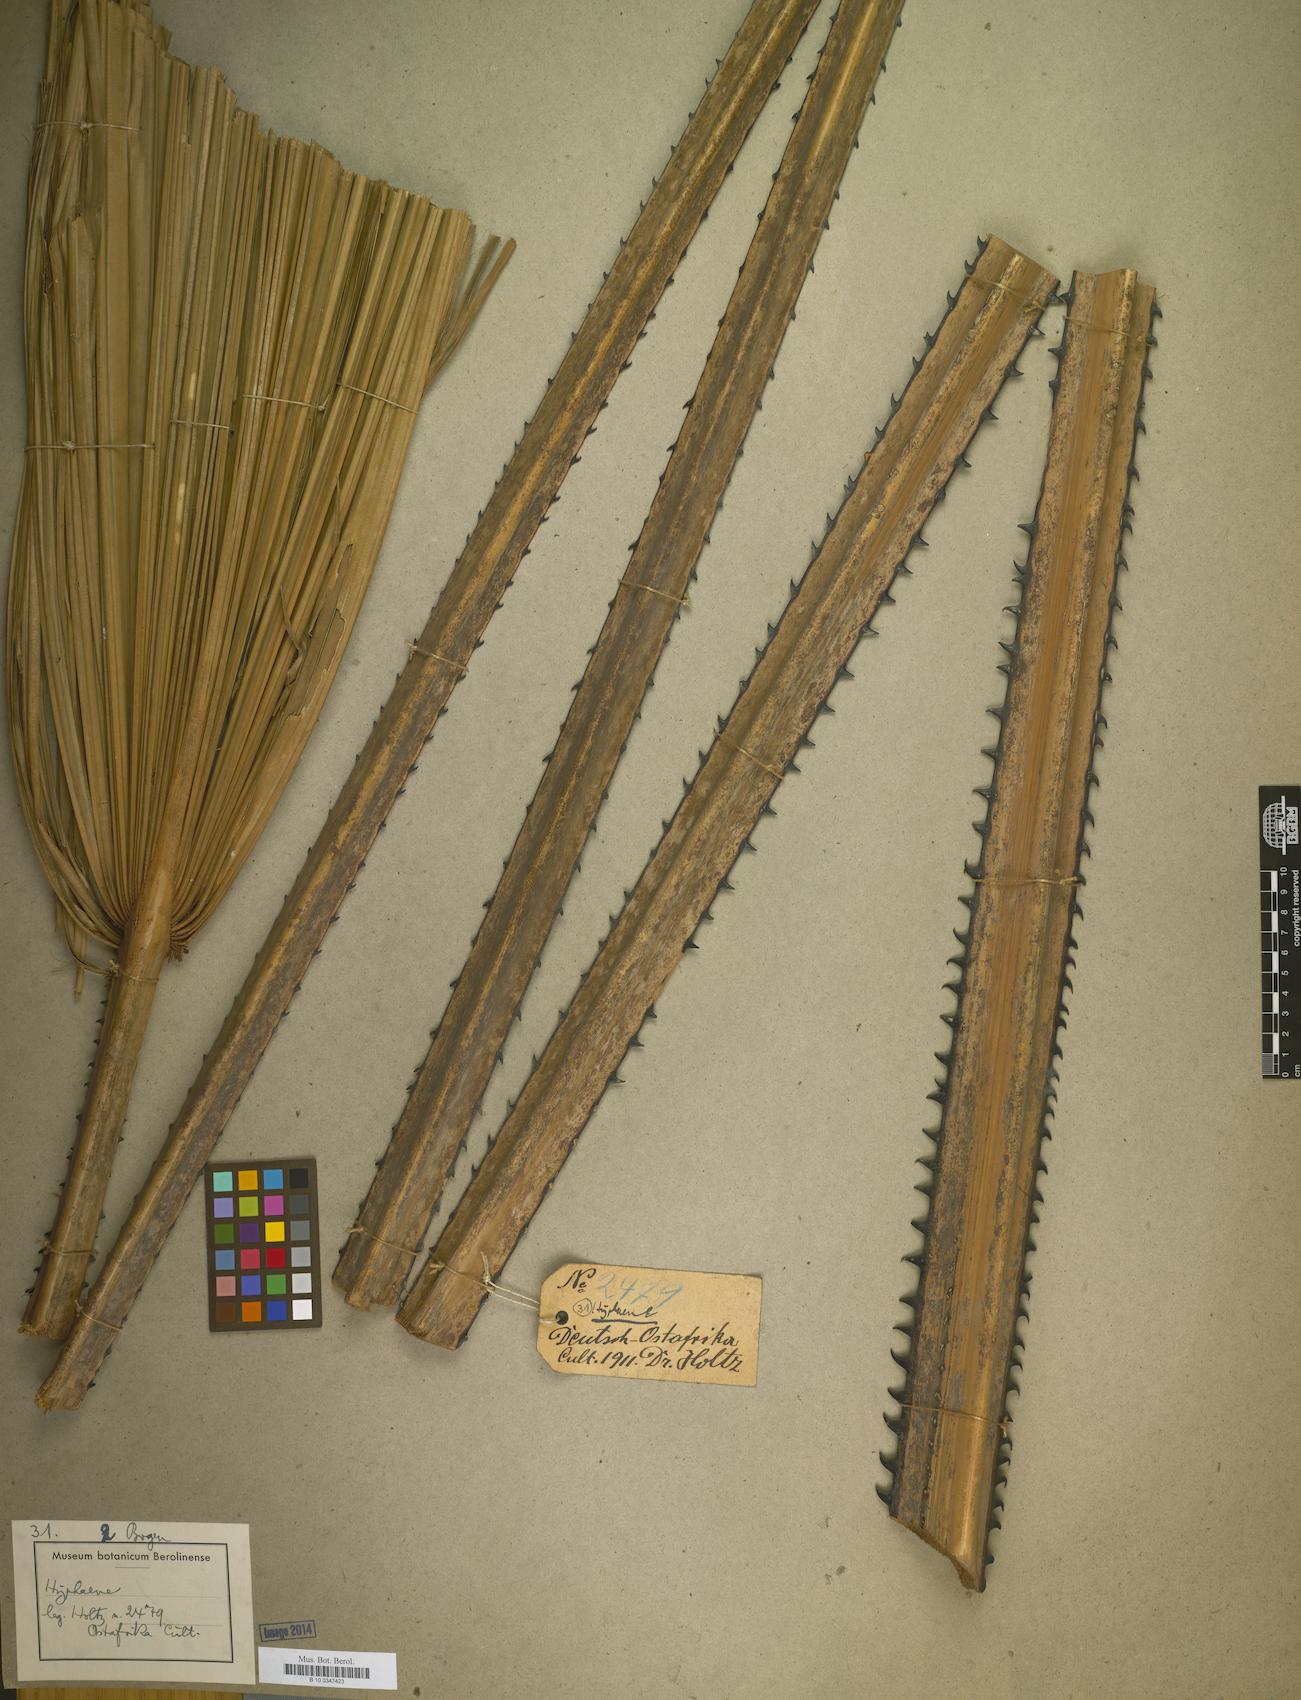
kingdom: Plantae
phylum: Tracheophyta
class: Liliopsida
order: Arecales
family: Arecaceae
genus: Hyphaene
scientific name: Hyphaene
